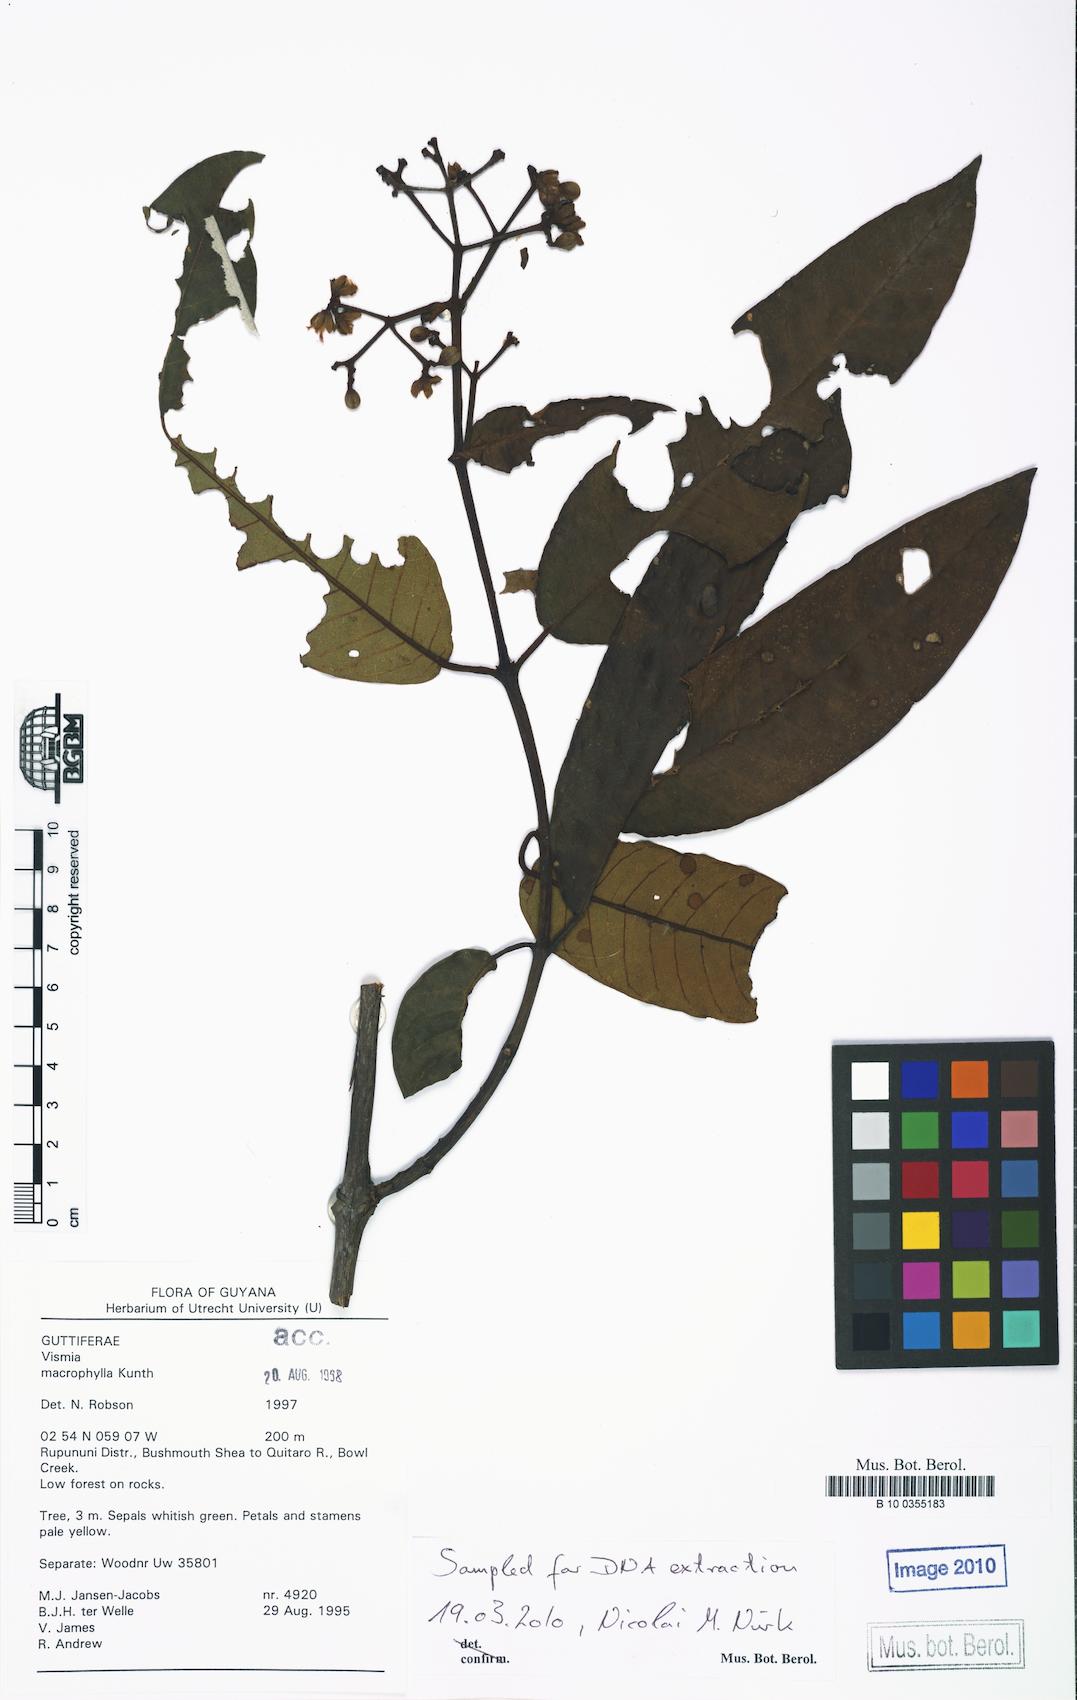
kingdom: Plantae
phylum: Tracheophyta
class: Magnoliopsida
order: Malpighiales
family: Hypericaceae
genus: Vismia
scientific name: Vismia macrophylla
